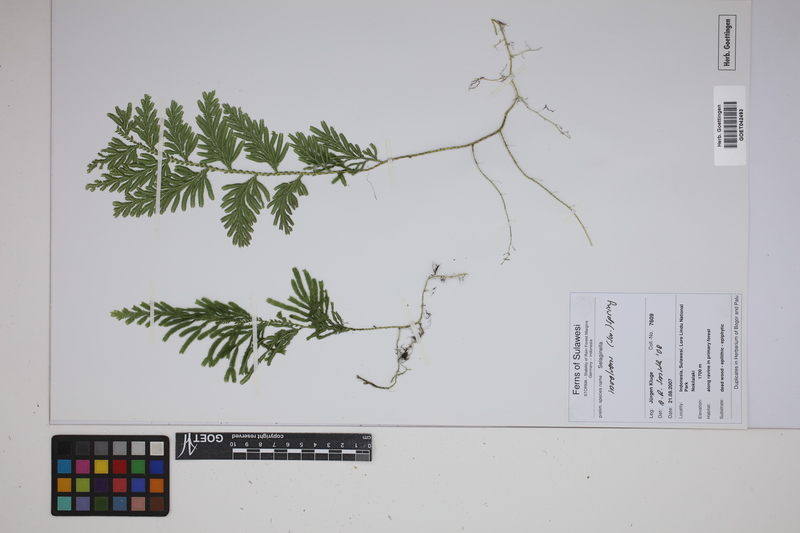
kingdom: Plantae
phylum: Tracheophyta
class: Lycopodiopsida
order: Selaginellales
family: Selaginellaceae
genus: Selaginella
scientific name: Selaginella involvens
